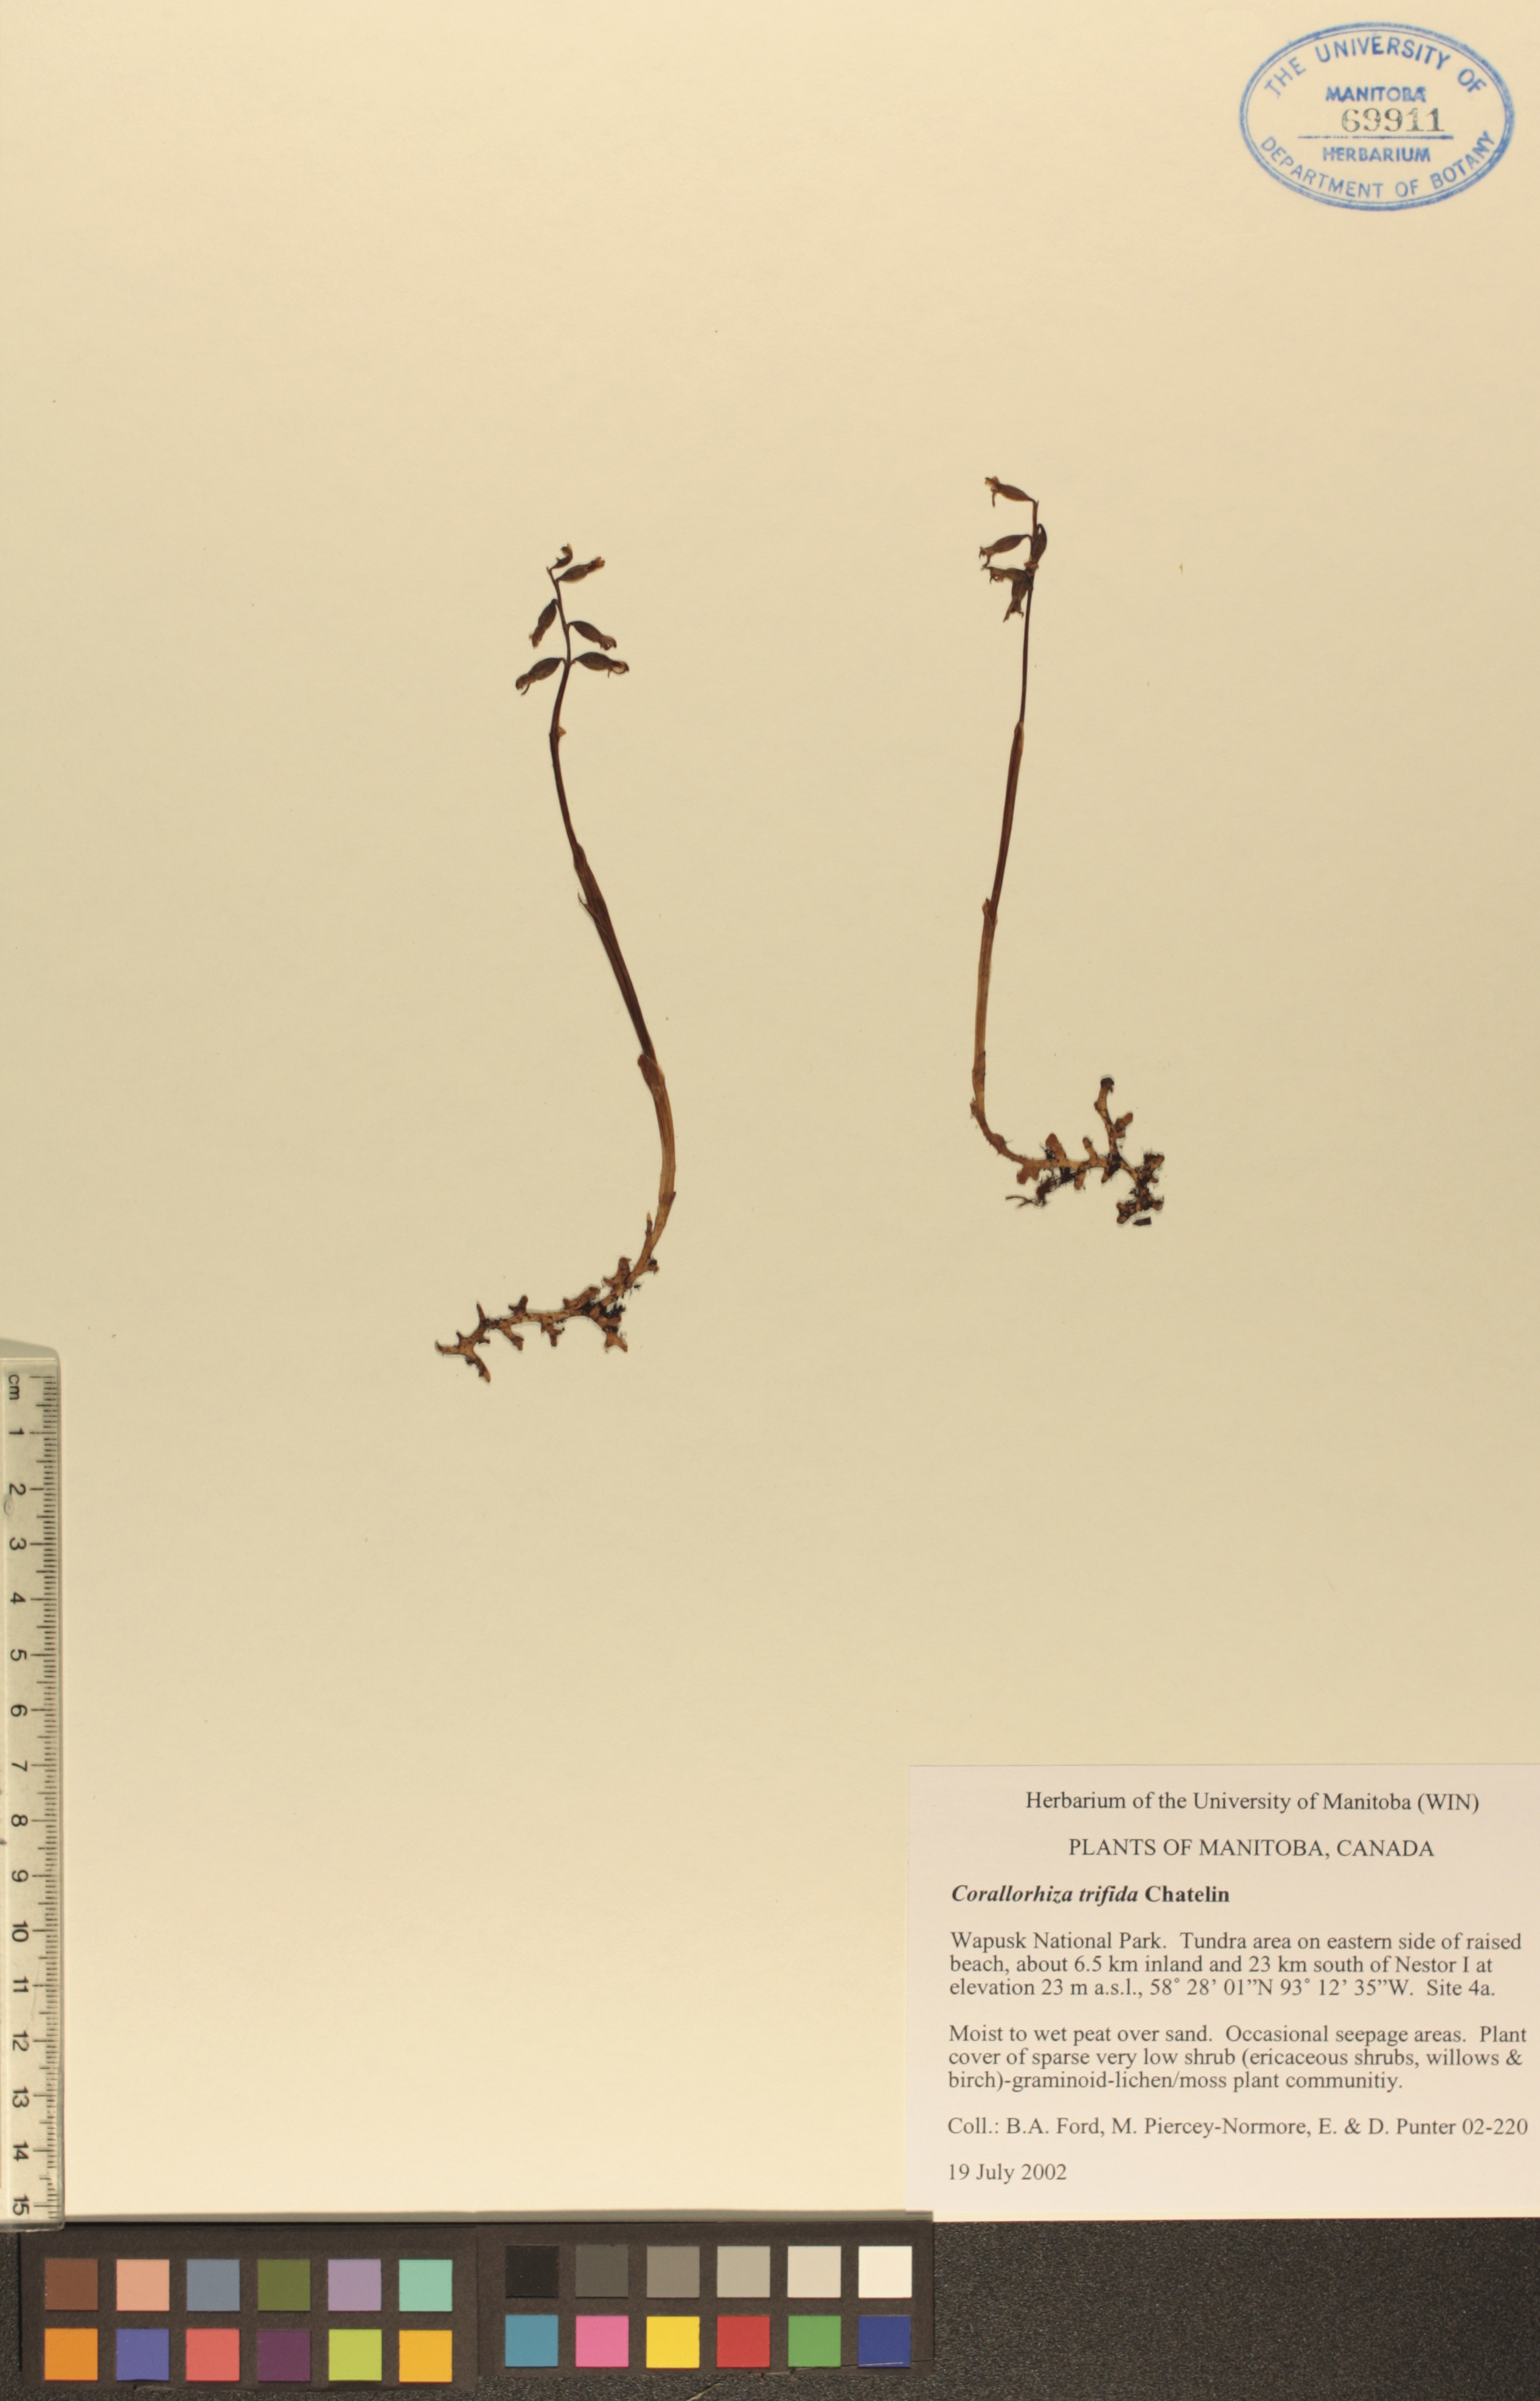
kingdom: Plantae
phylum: Tracheophyta
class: Liliopsida
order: Asparagales
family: Orchidaceae
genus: Corallorhiza
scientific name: Corallorhiza trifida
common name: Yellow coralroot
